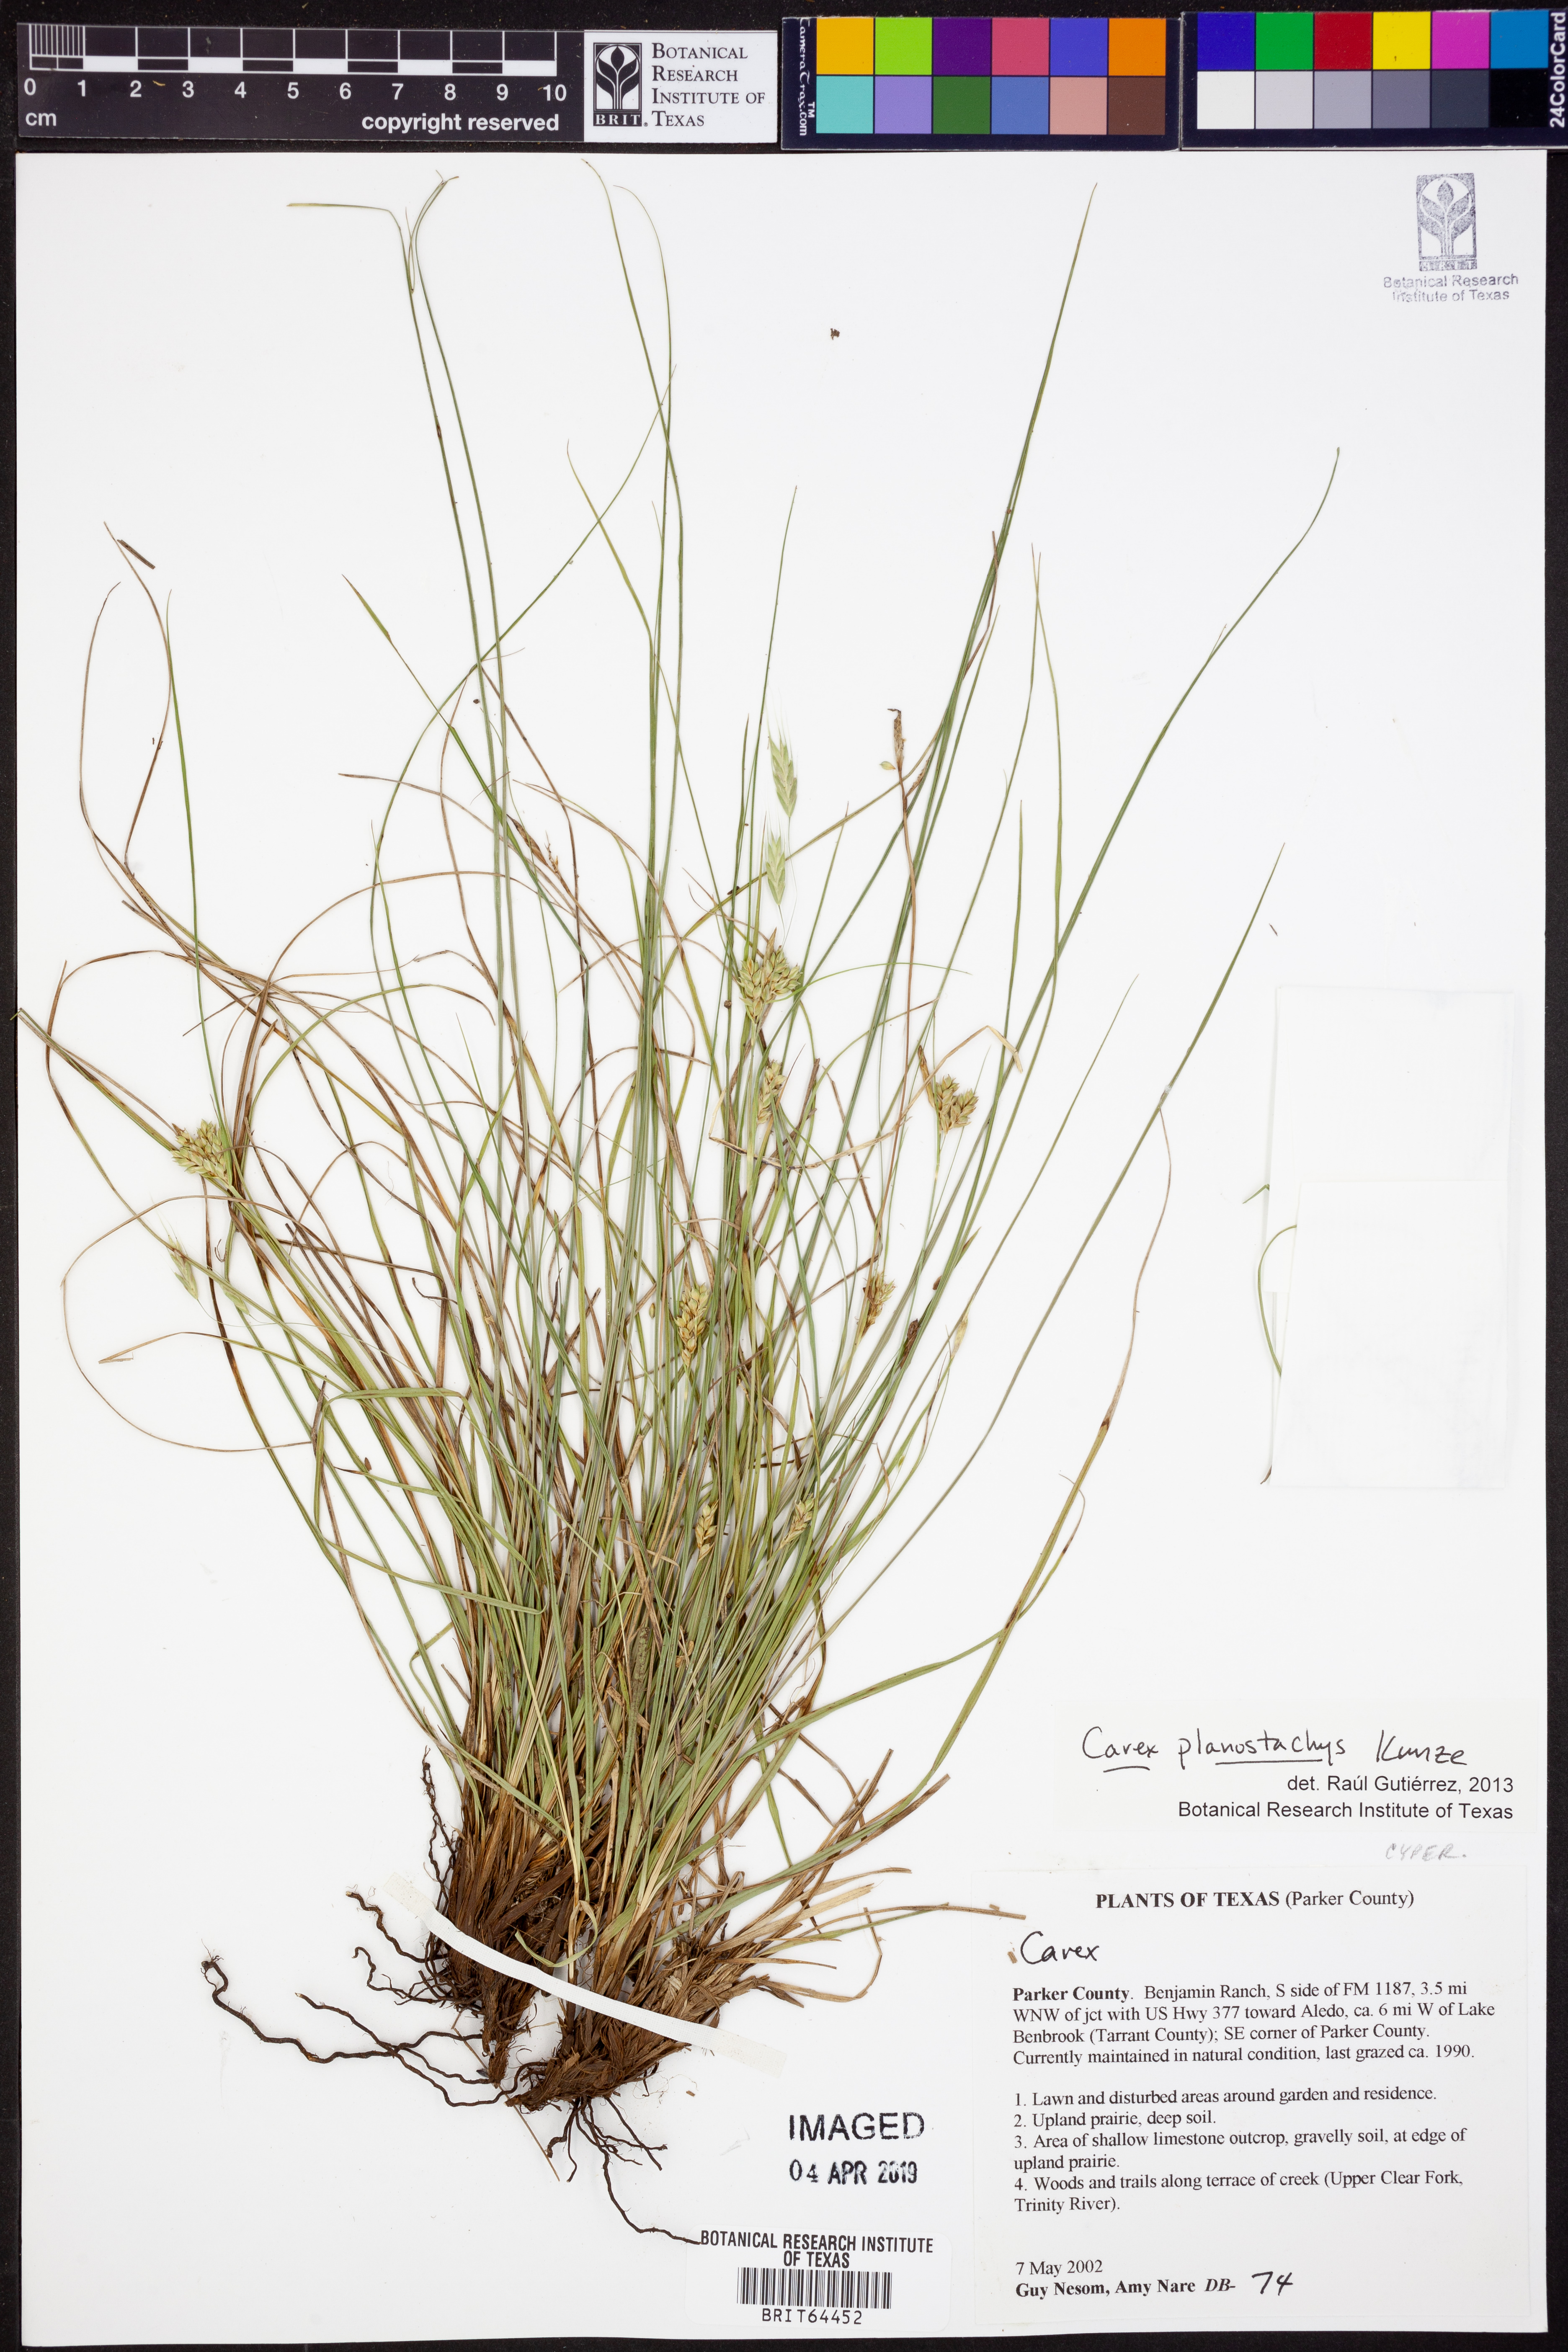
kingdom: Plantae
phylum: Tracheophyta
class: Liliopsida
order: Poales
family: Cyperaceae
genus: Carex
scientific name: Carex planostachys
